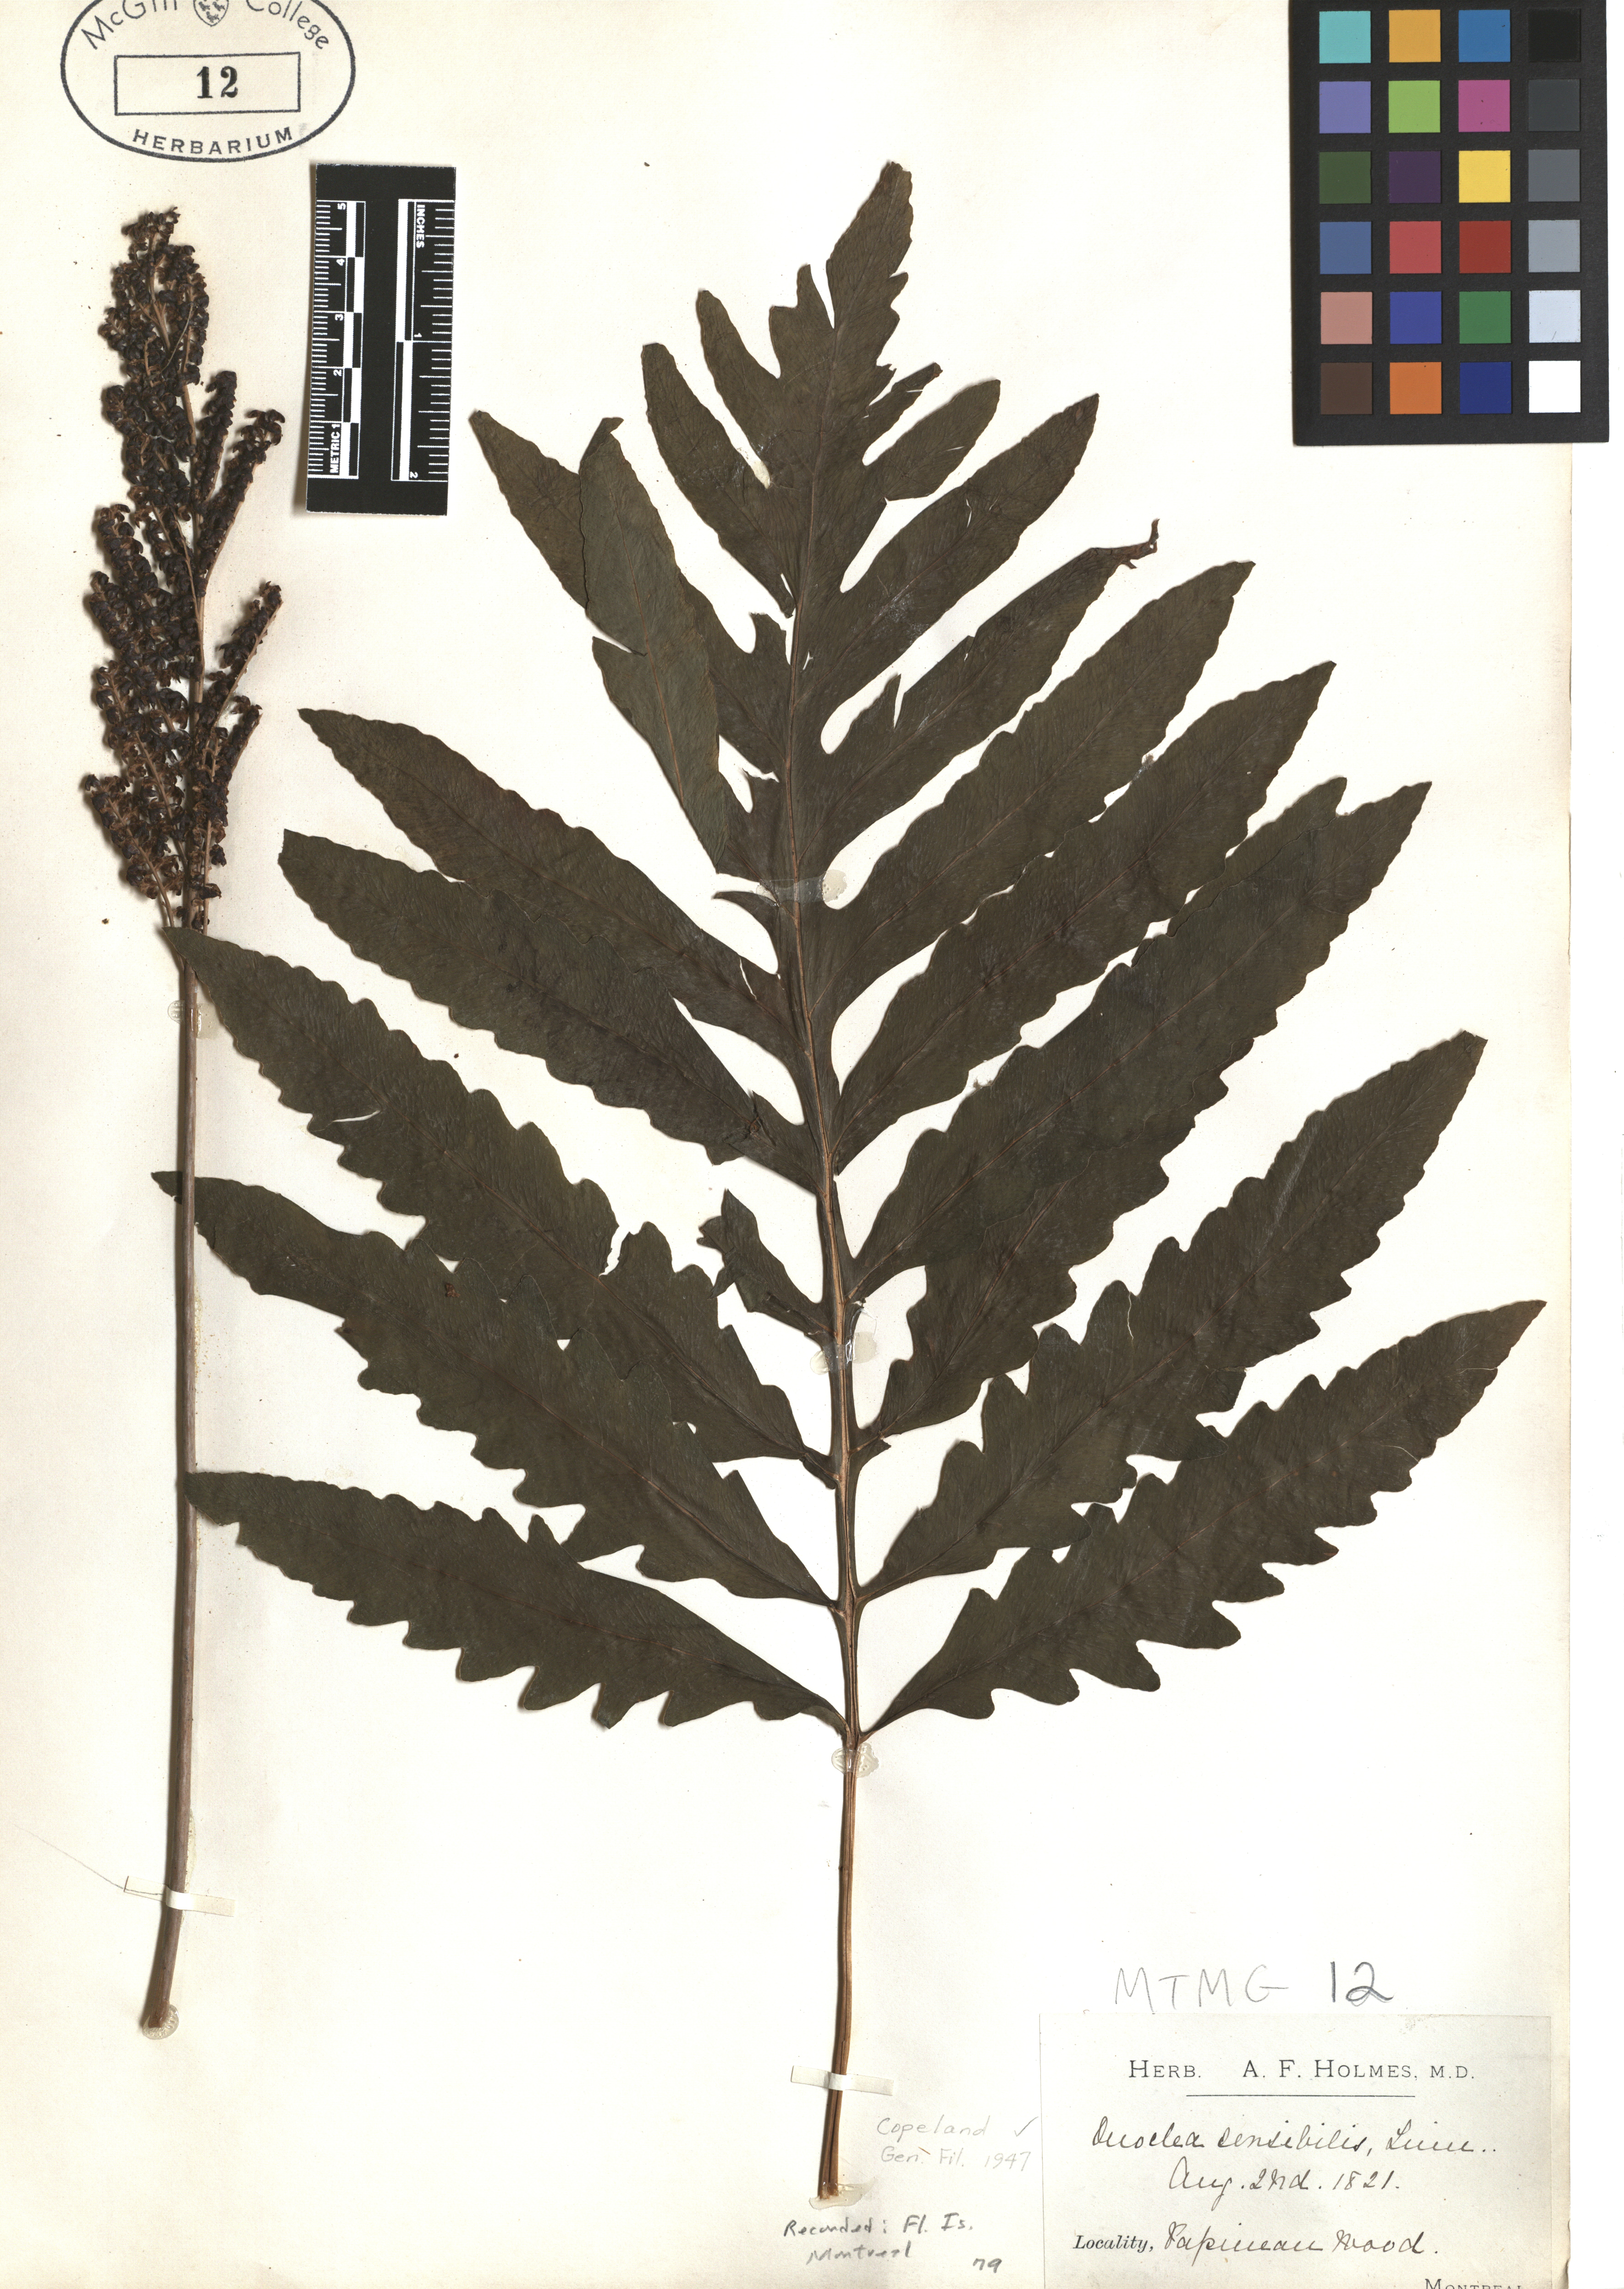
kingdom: Plantae
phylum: Tracheophyta
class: Polypodiopsida
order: Polypodiales
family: Onocleaceae
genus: Onoclea
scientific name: Onoclea sensibilis
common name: Sensitive fern
